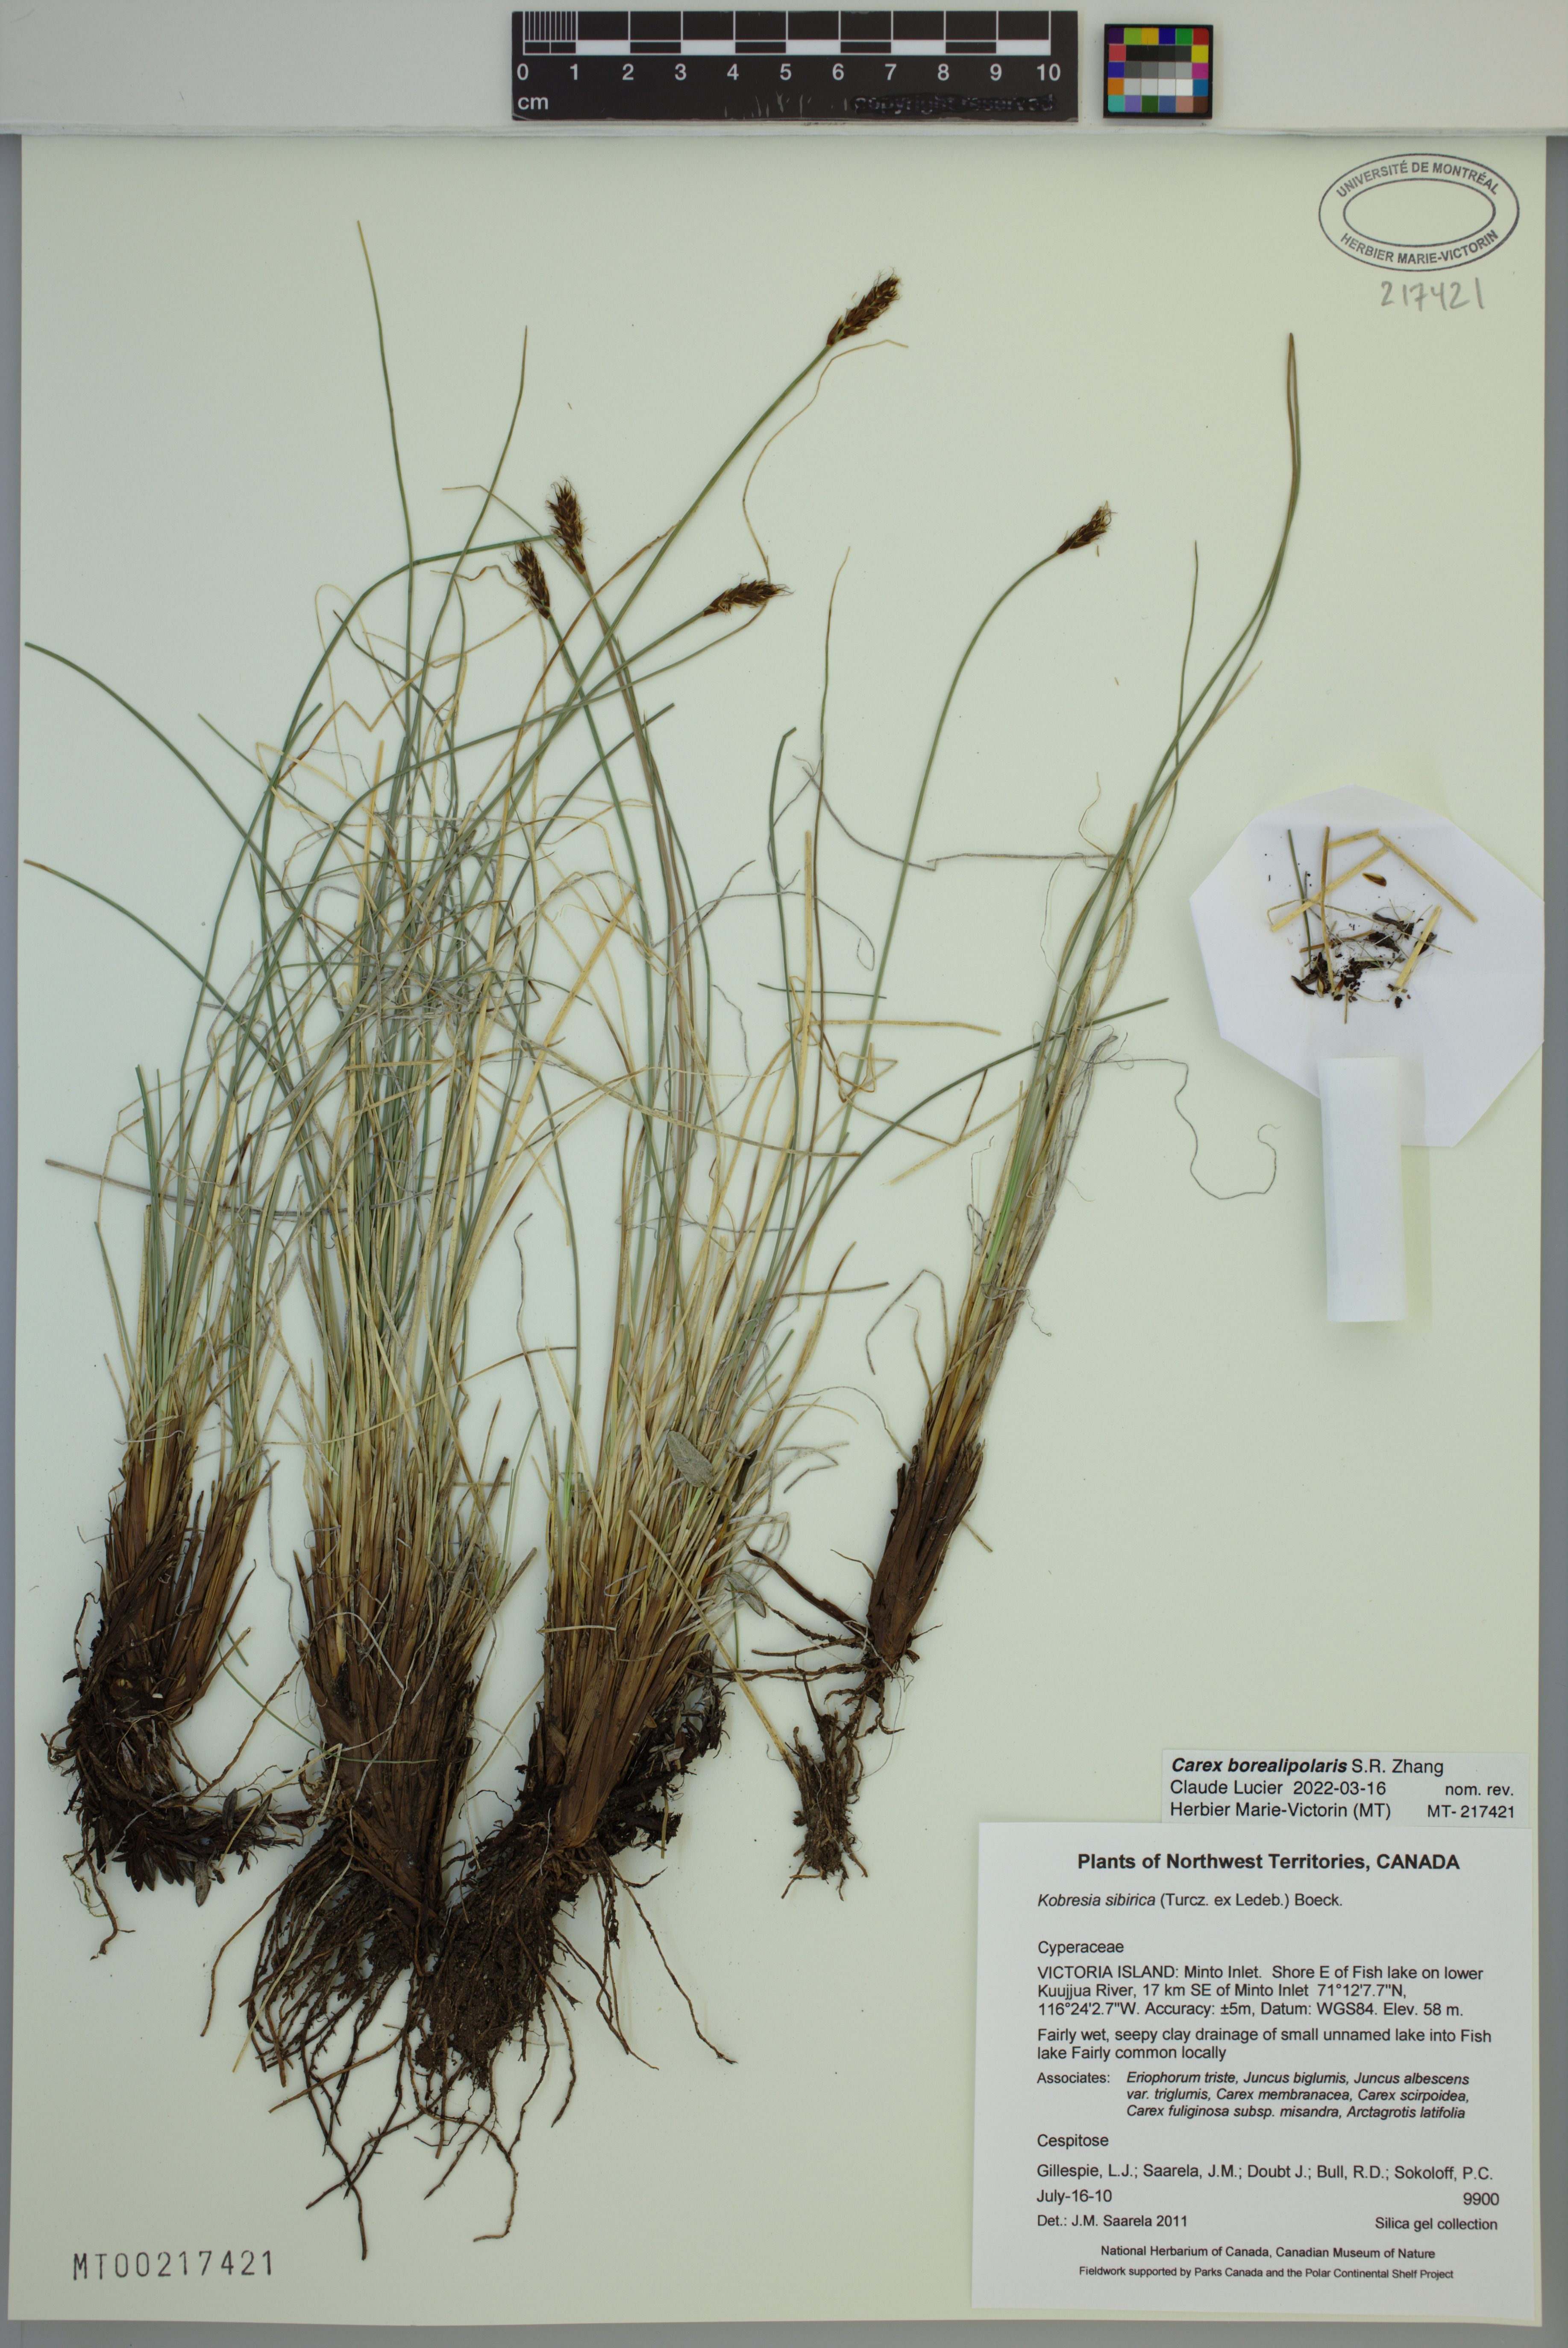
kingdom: Plantae
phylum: Tracheophyta
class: Liliopsida
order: Poales
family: Cyperaceae
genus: Carex
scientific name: Carex borealipolaris
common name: Siberian bog sedge
